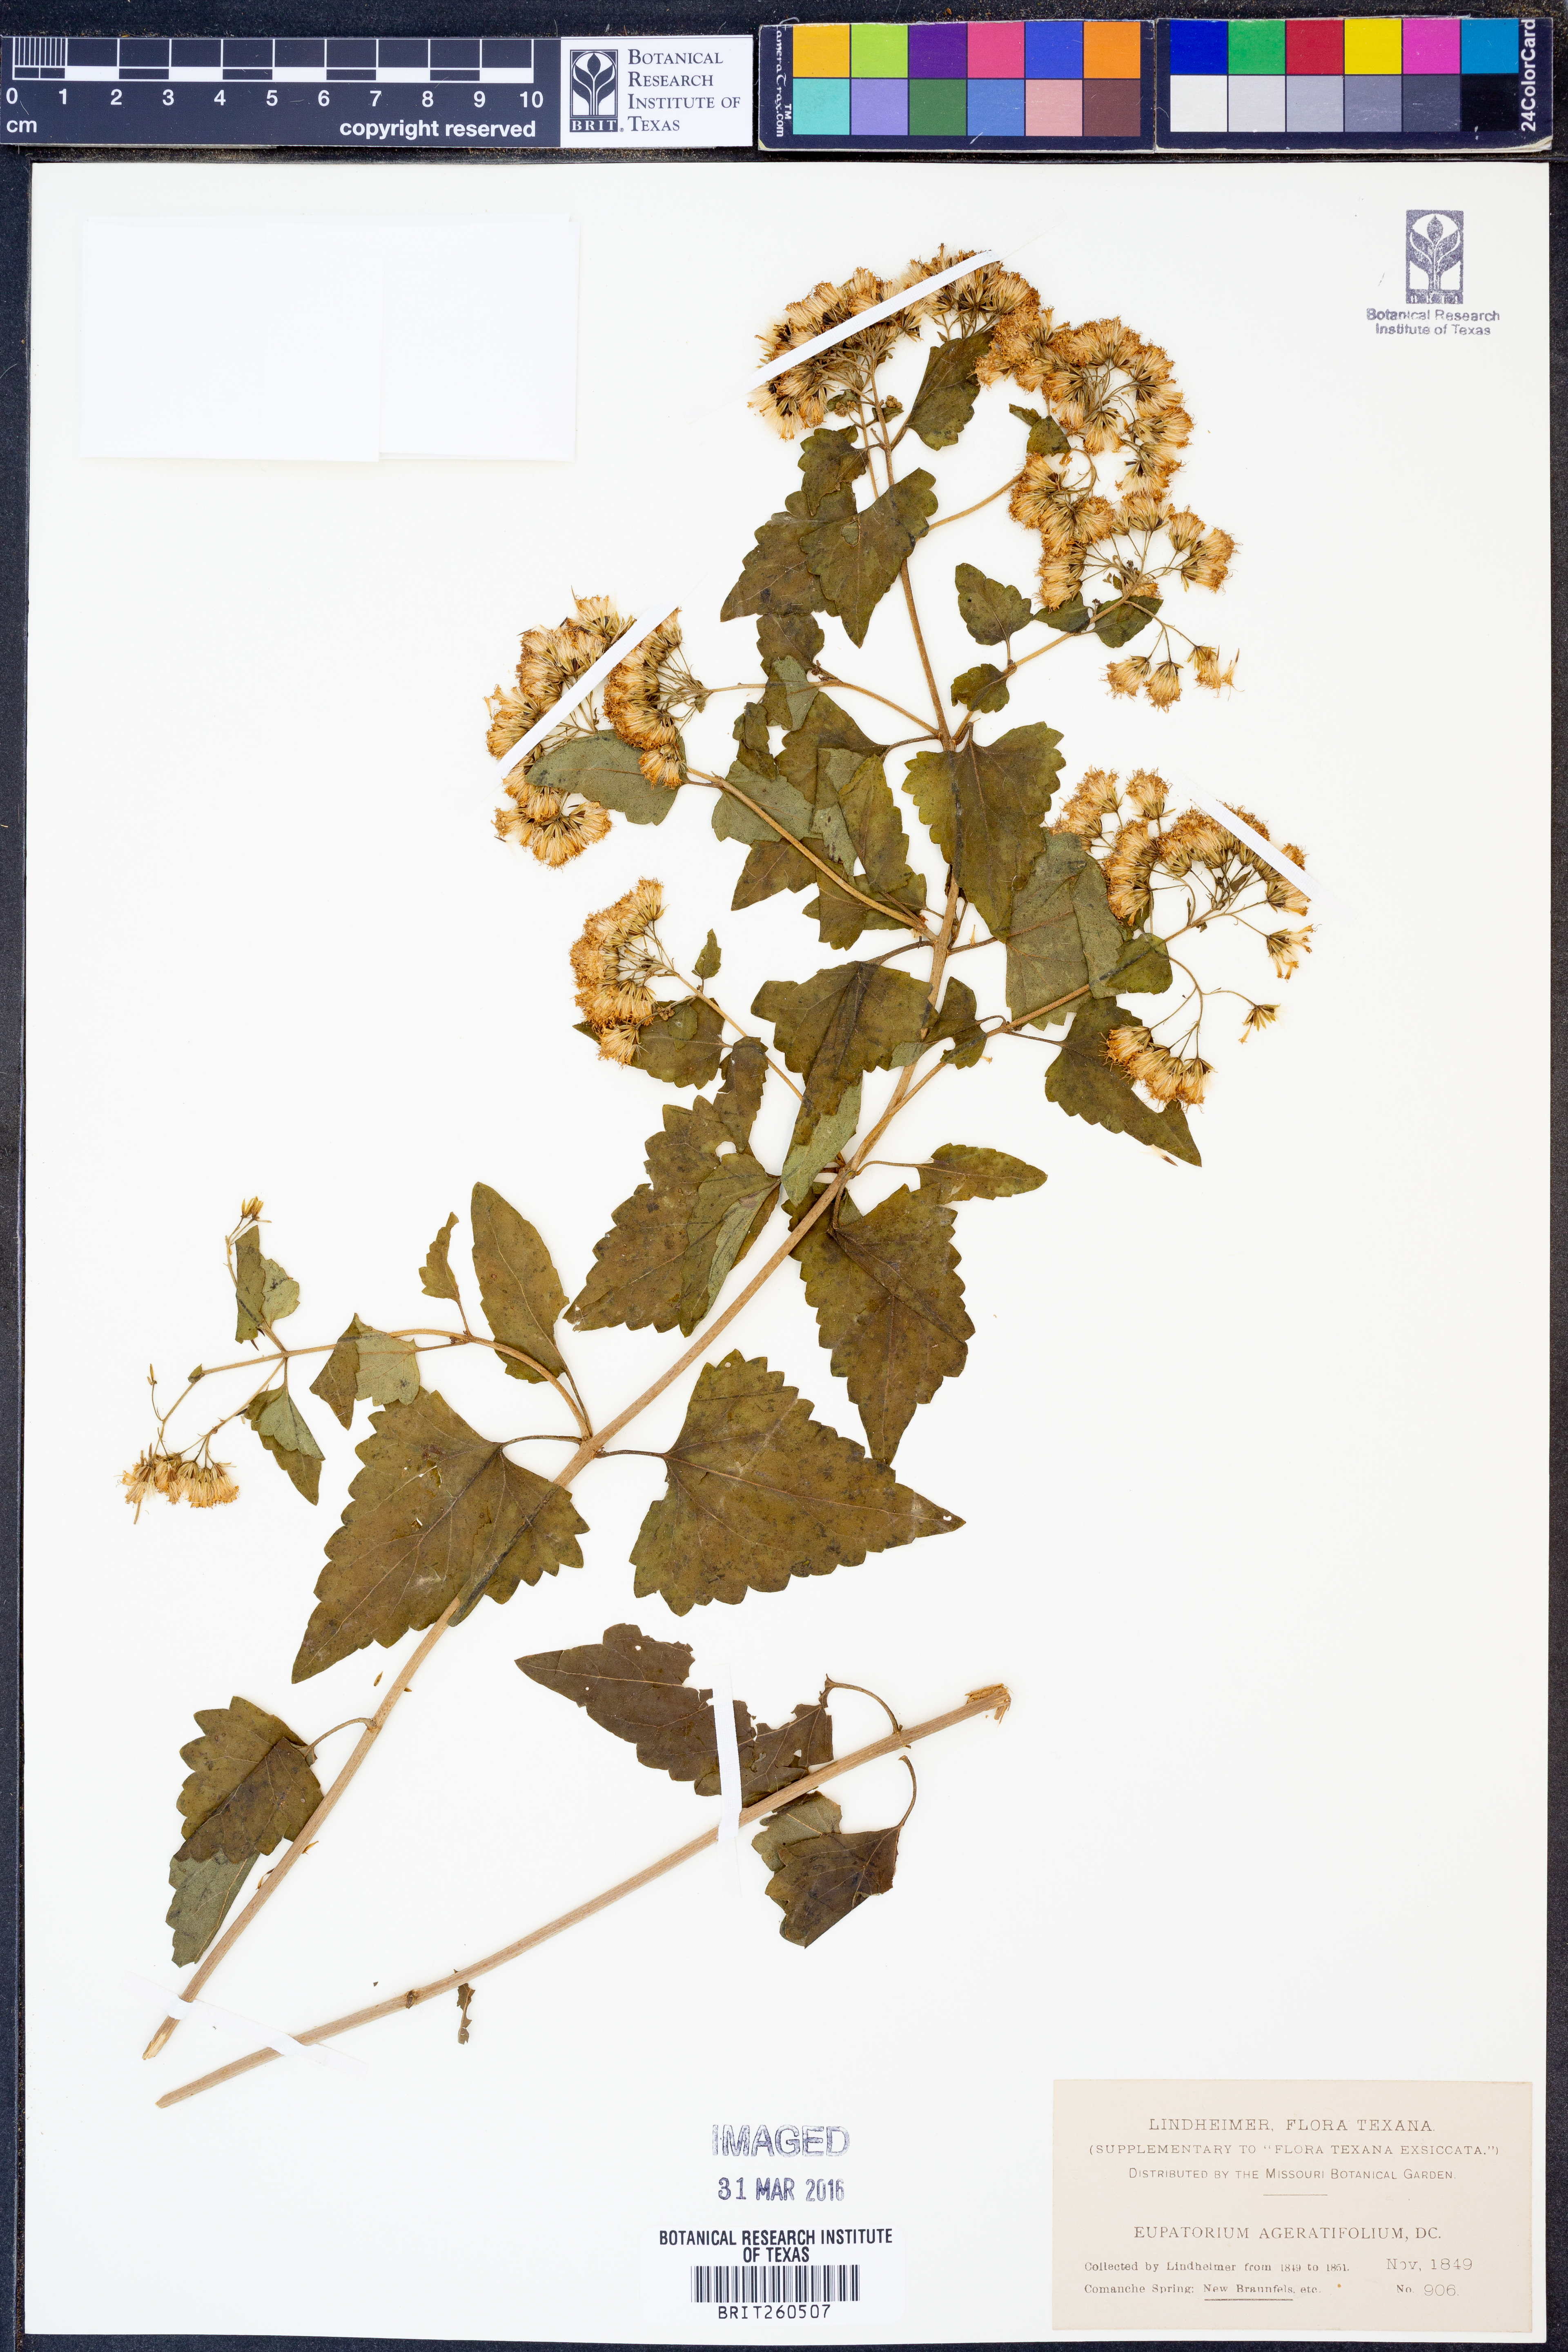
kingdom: Plantae
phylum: Tracheophyta
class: Magnoliopsida
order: Asterales
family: Asteraceae
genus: Ageratina
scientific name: Ageratina havanensis
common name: Havana snakeroot
